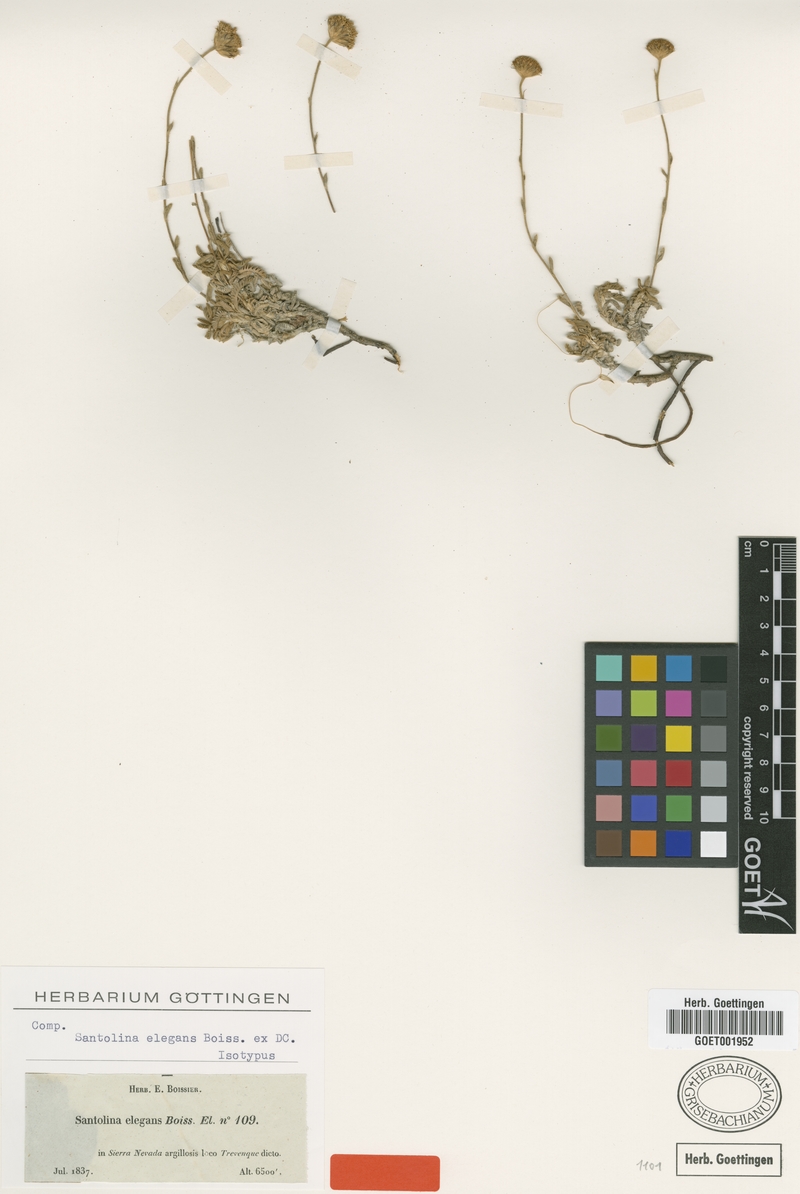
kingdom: Plantae
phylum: Tracheophyta
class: Magnoliopsida
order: Asterales
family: Asteraceae
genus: Santolina
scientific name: Santolina elegans
